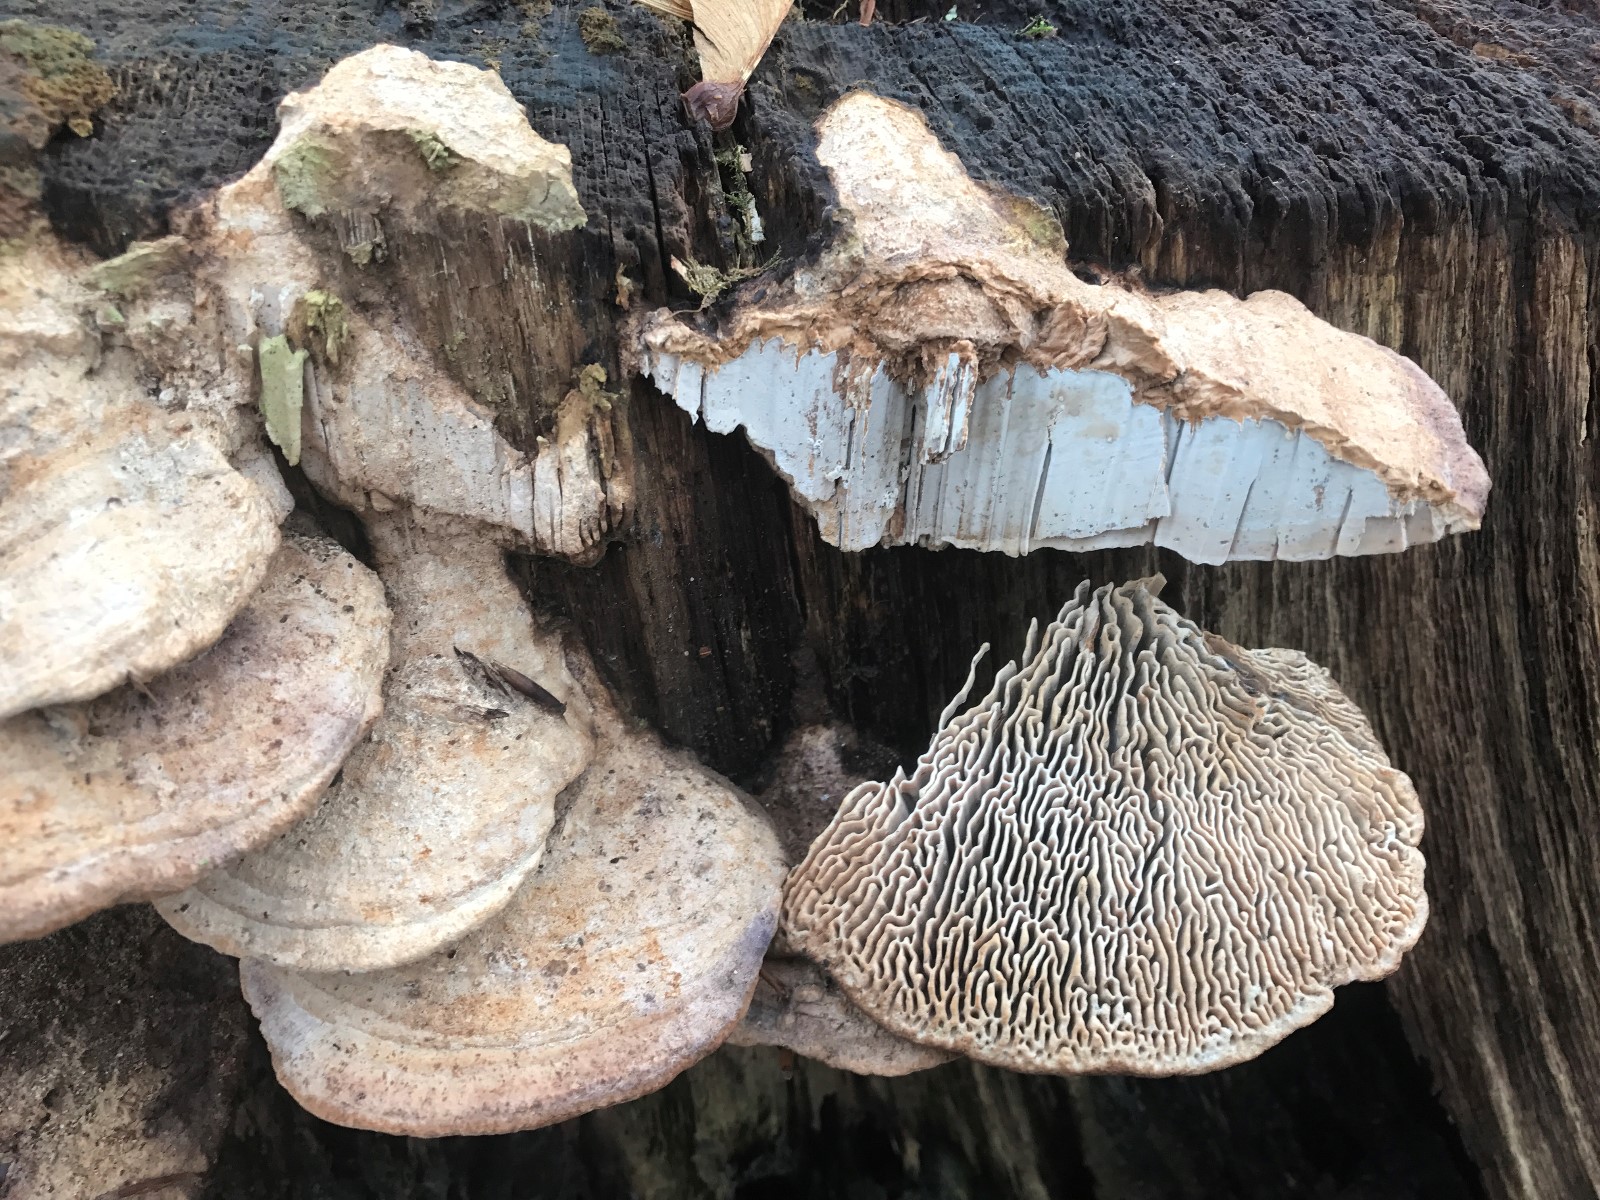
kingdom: Fungi
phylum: Basidiomycota
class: Agaricomycetes
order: Polyporales
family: Fomitopsidaceae
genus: Daedalea
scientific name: Daedalea quercina
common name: ege-labyrintsvamp
